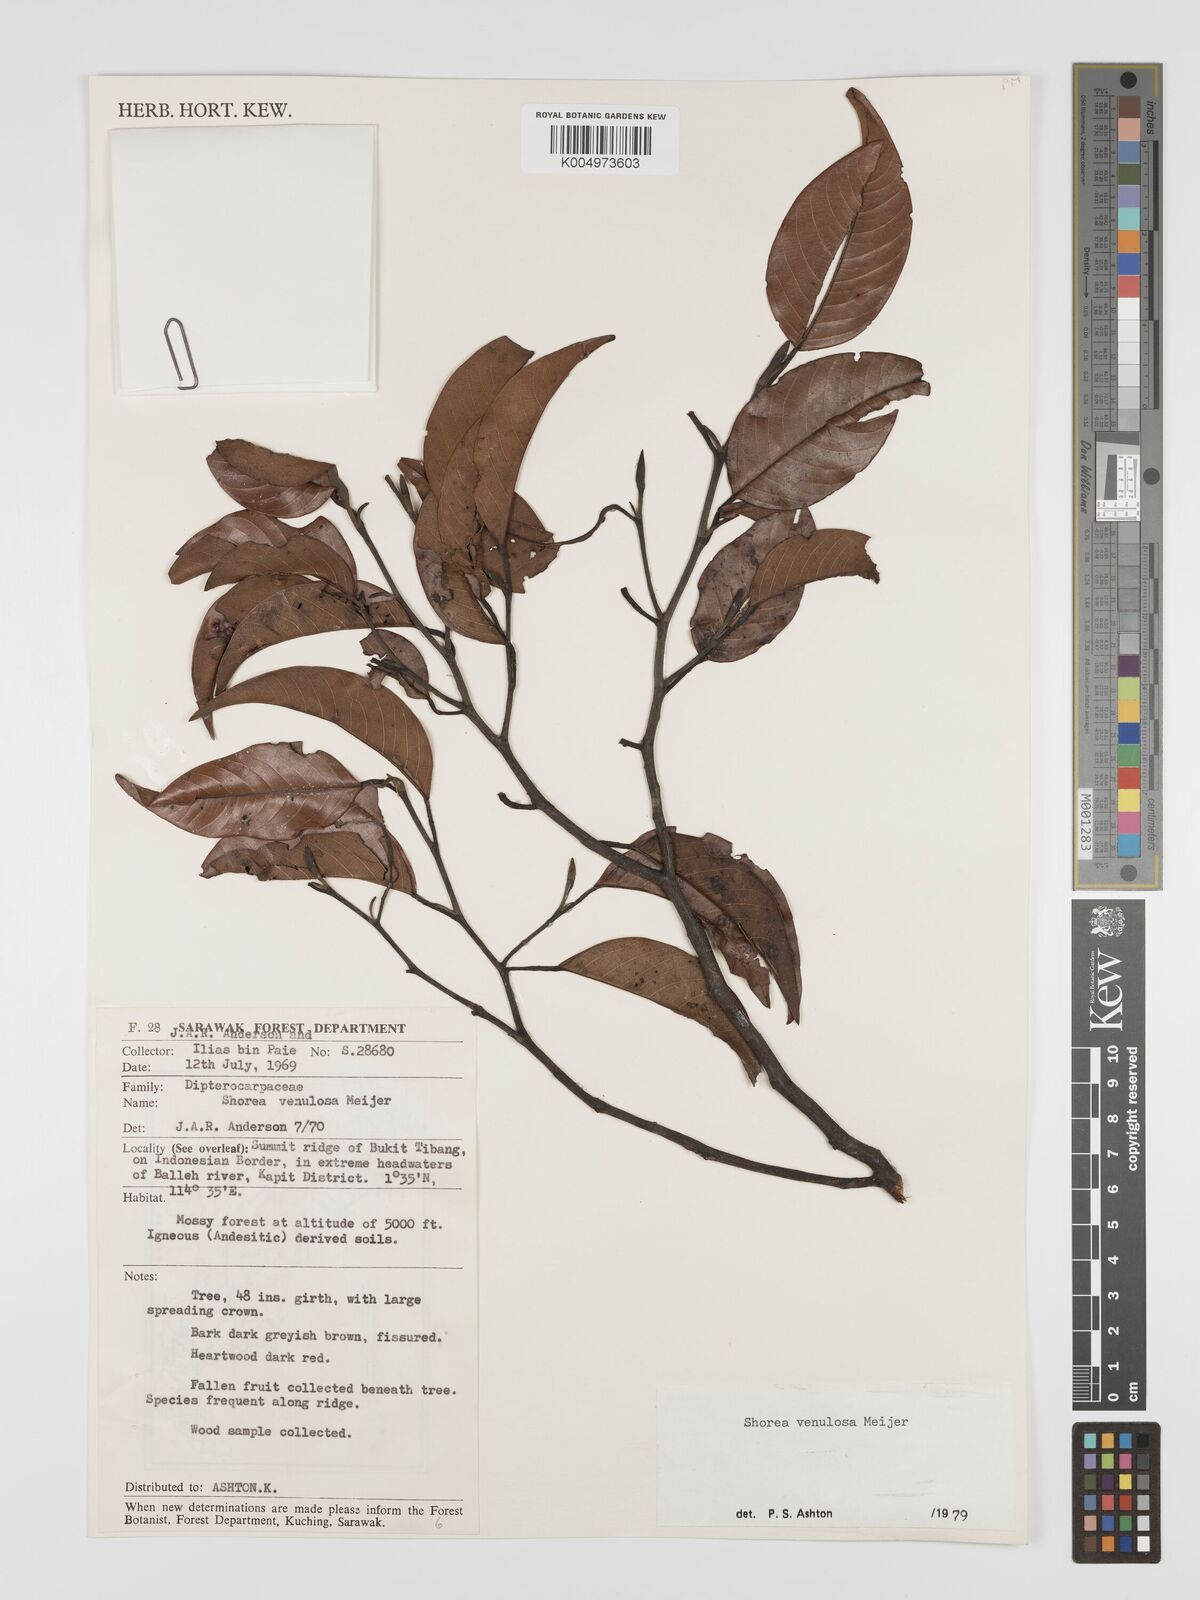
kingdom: Plantae
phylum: Tracheophyta
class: Magnoliopsida
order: Malvales
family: Dipterocarpaceae
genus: Shorea
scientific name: Shorea venulosa
